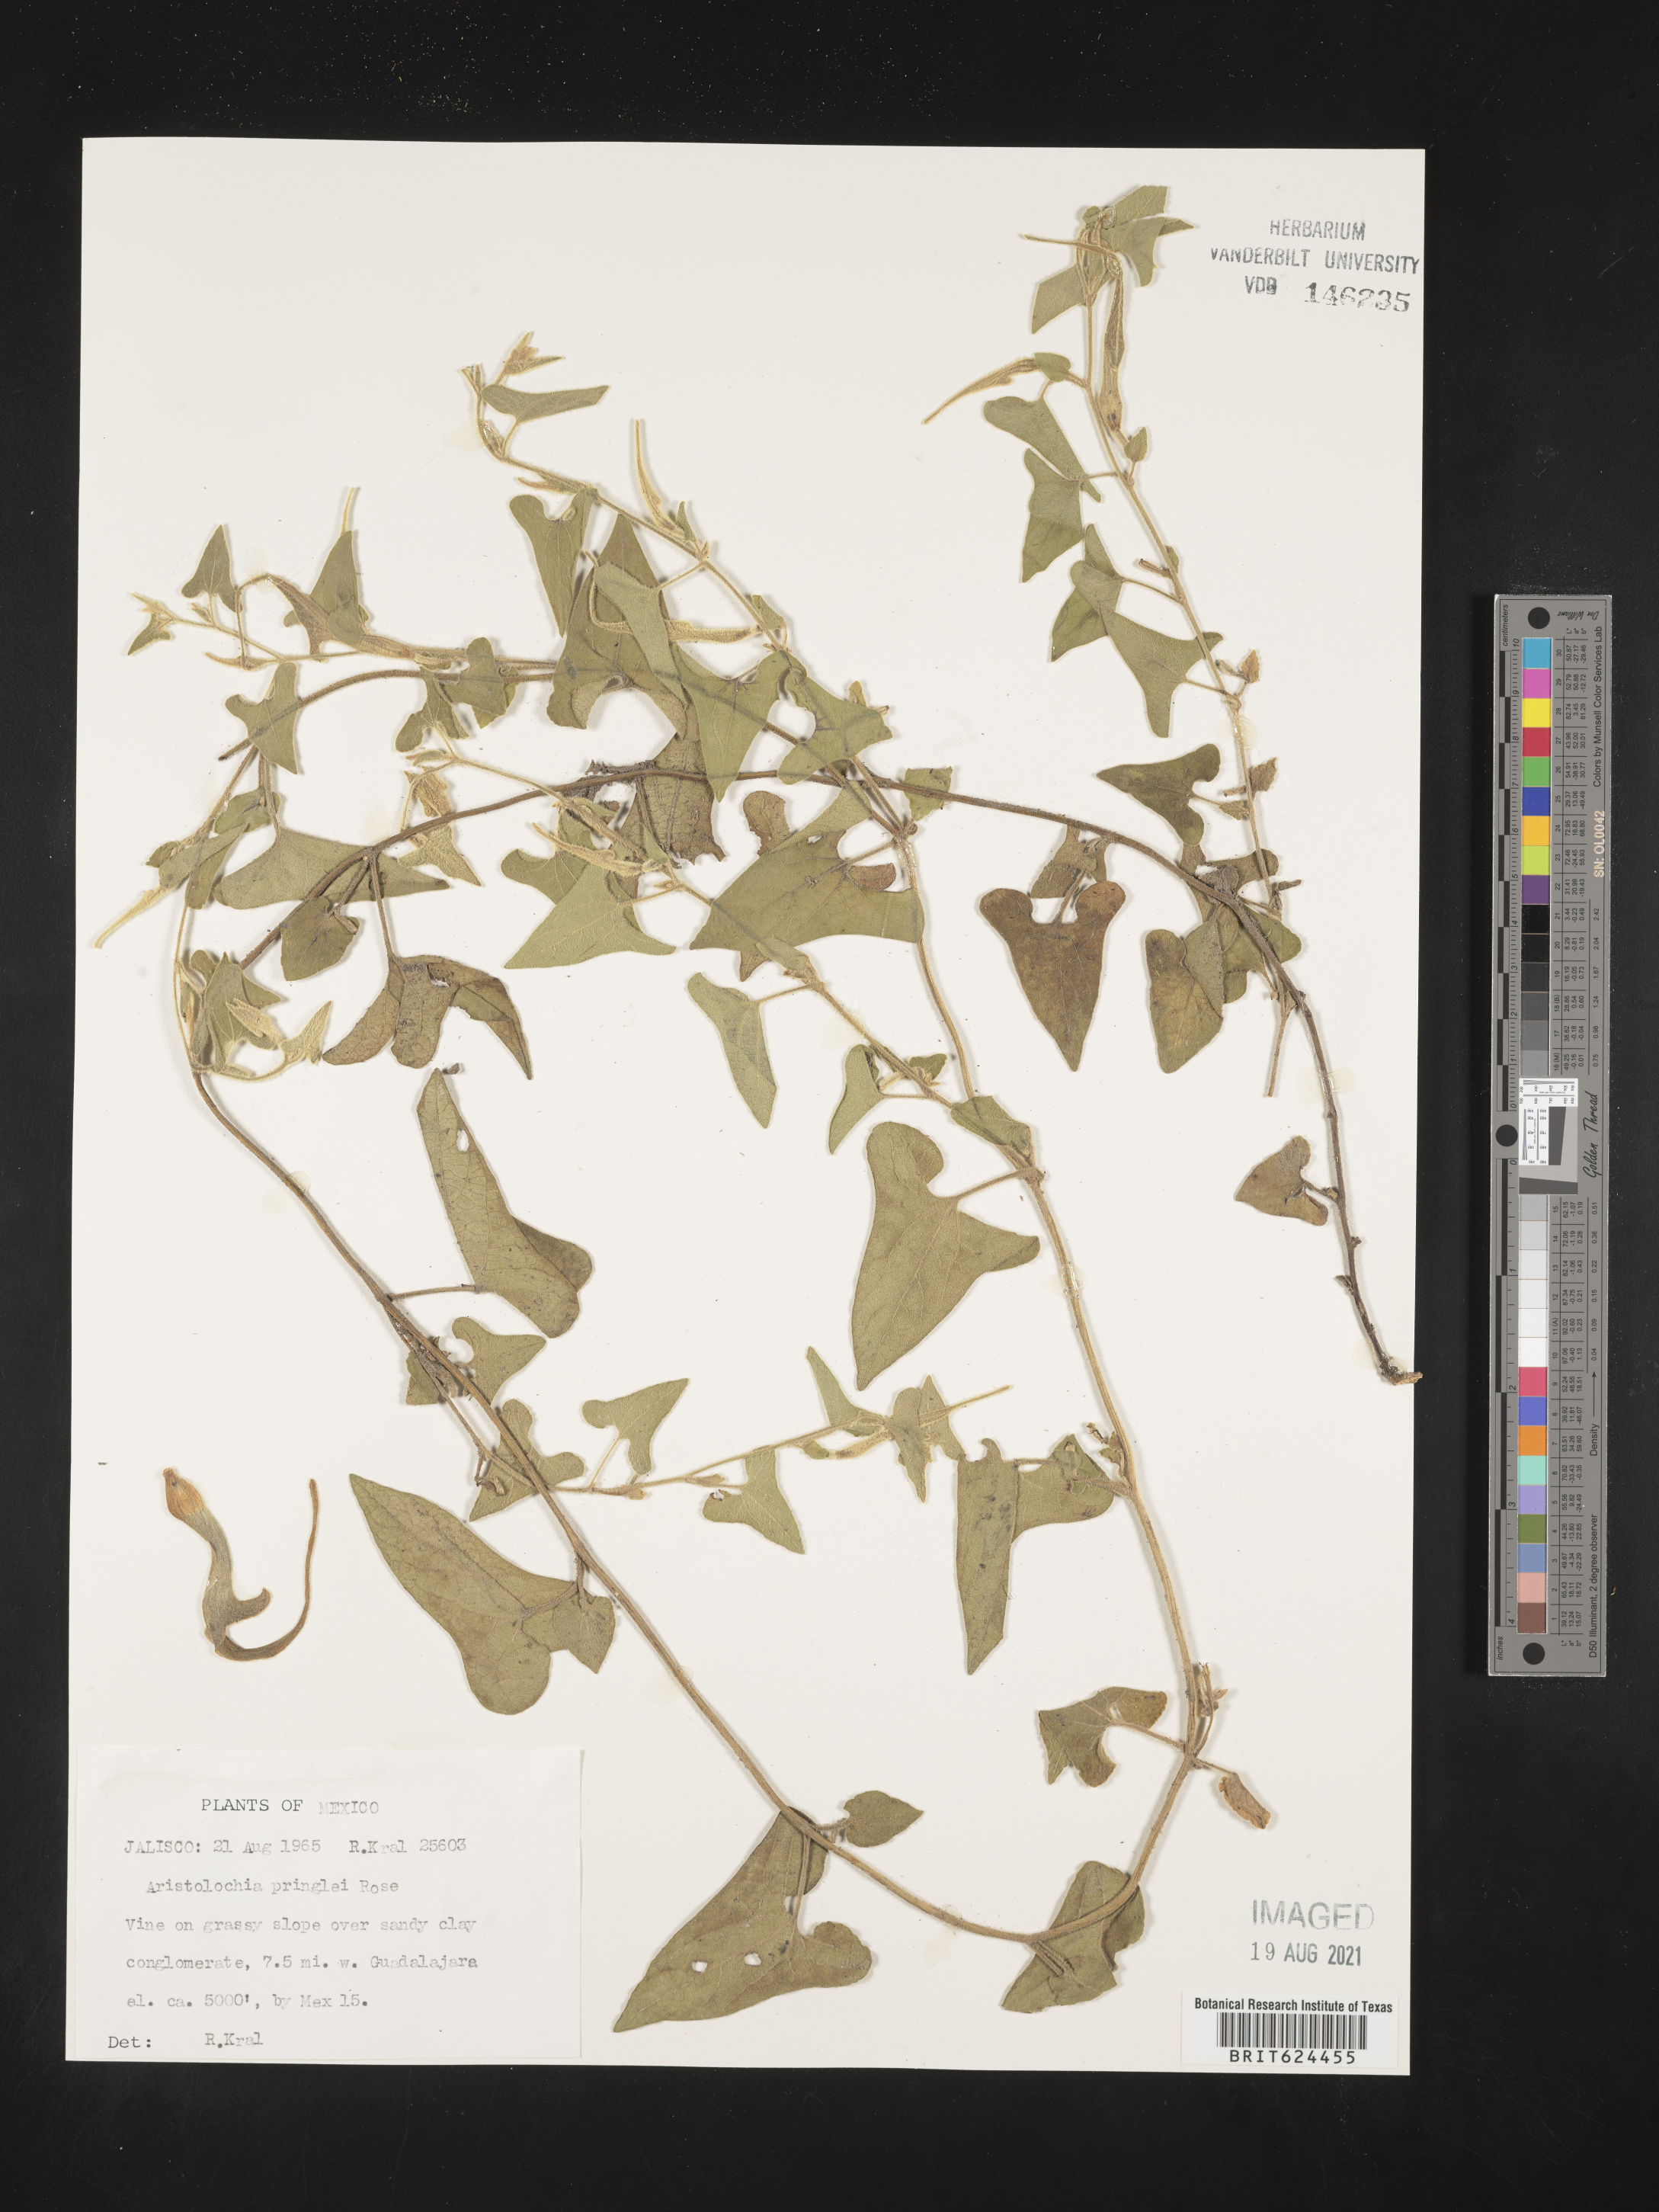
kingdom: Plantae
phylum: Tracheophyta
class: Magnoliopsida
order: Piperales
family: Aristolochiaceae
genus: Aristolochia
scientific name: Aristolochia
